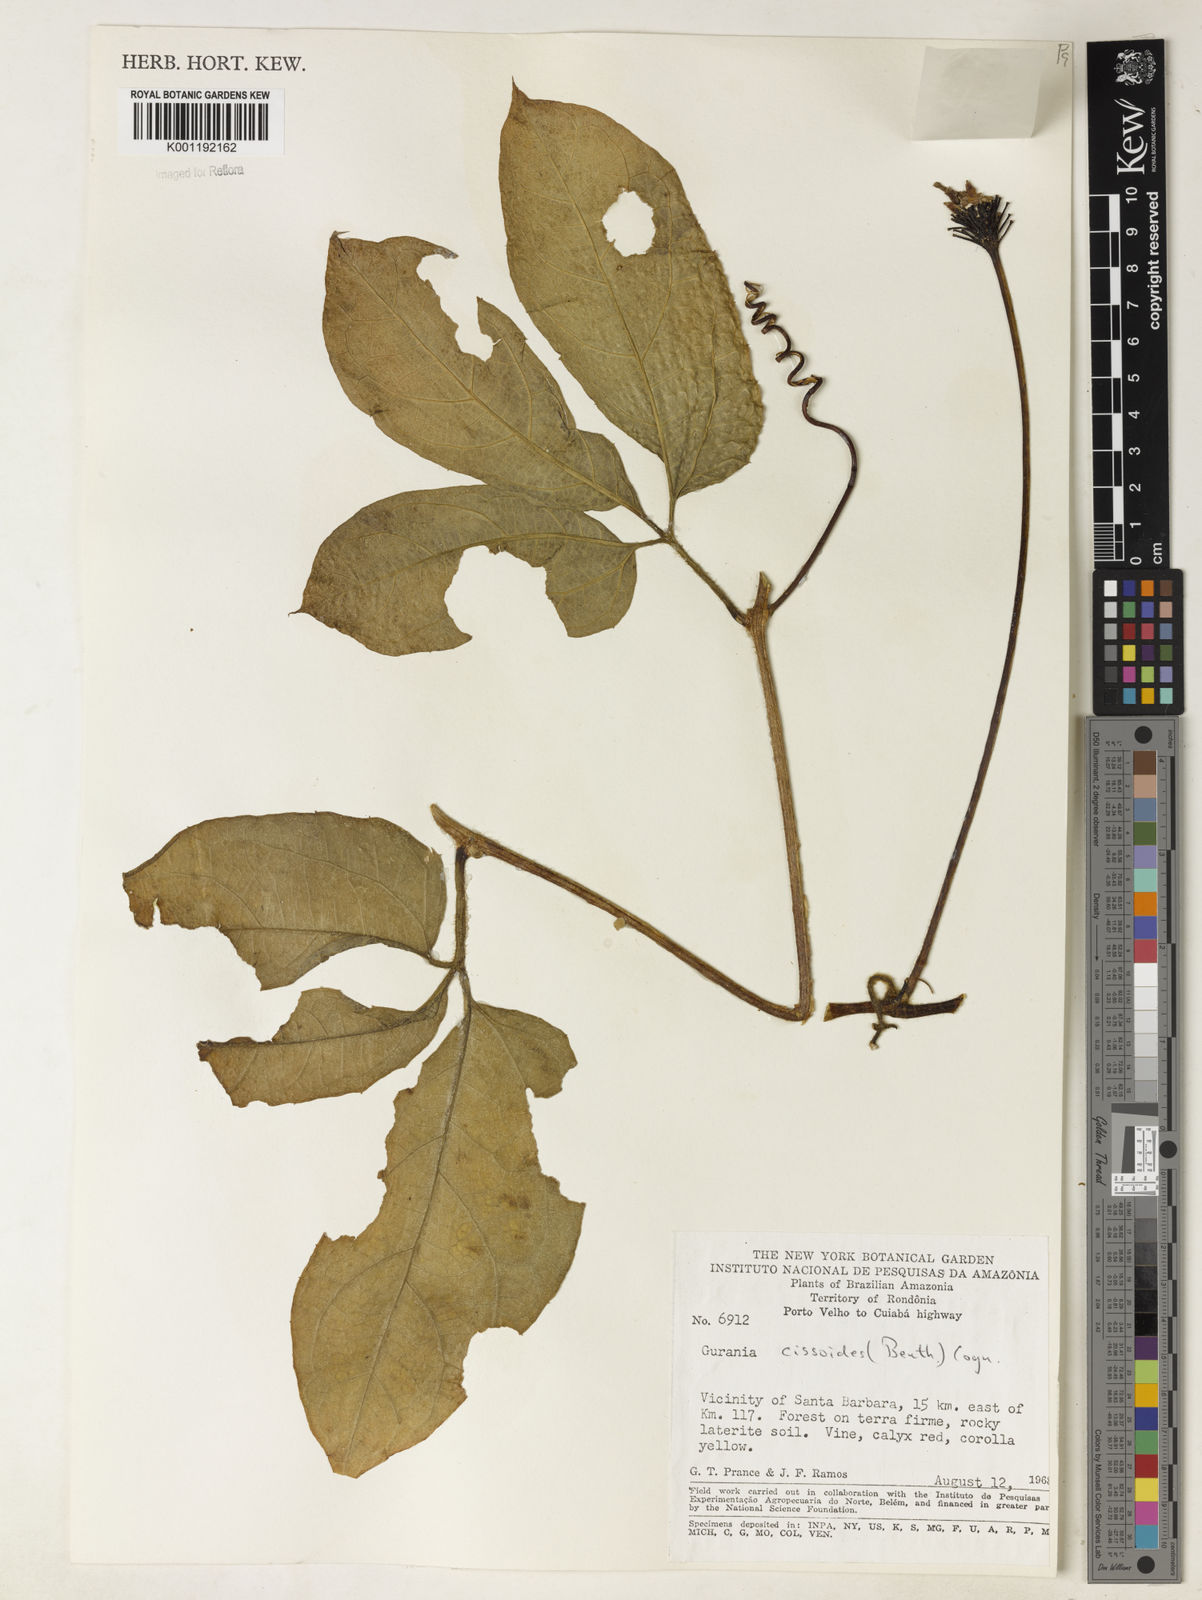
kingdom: Plantae
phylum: Tracheophyta
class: Magnoliopsida
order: Cucurbitales
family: Cucurbitaceae
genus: Gurania
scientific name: Gurania bignoniacea
